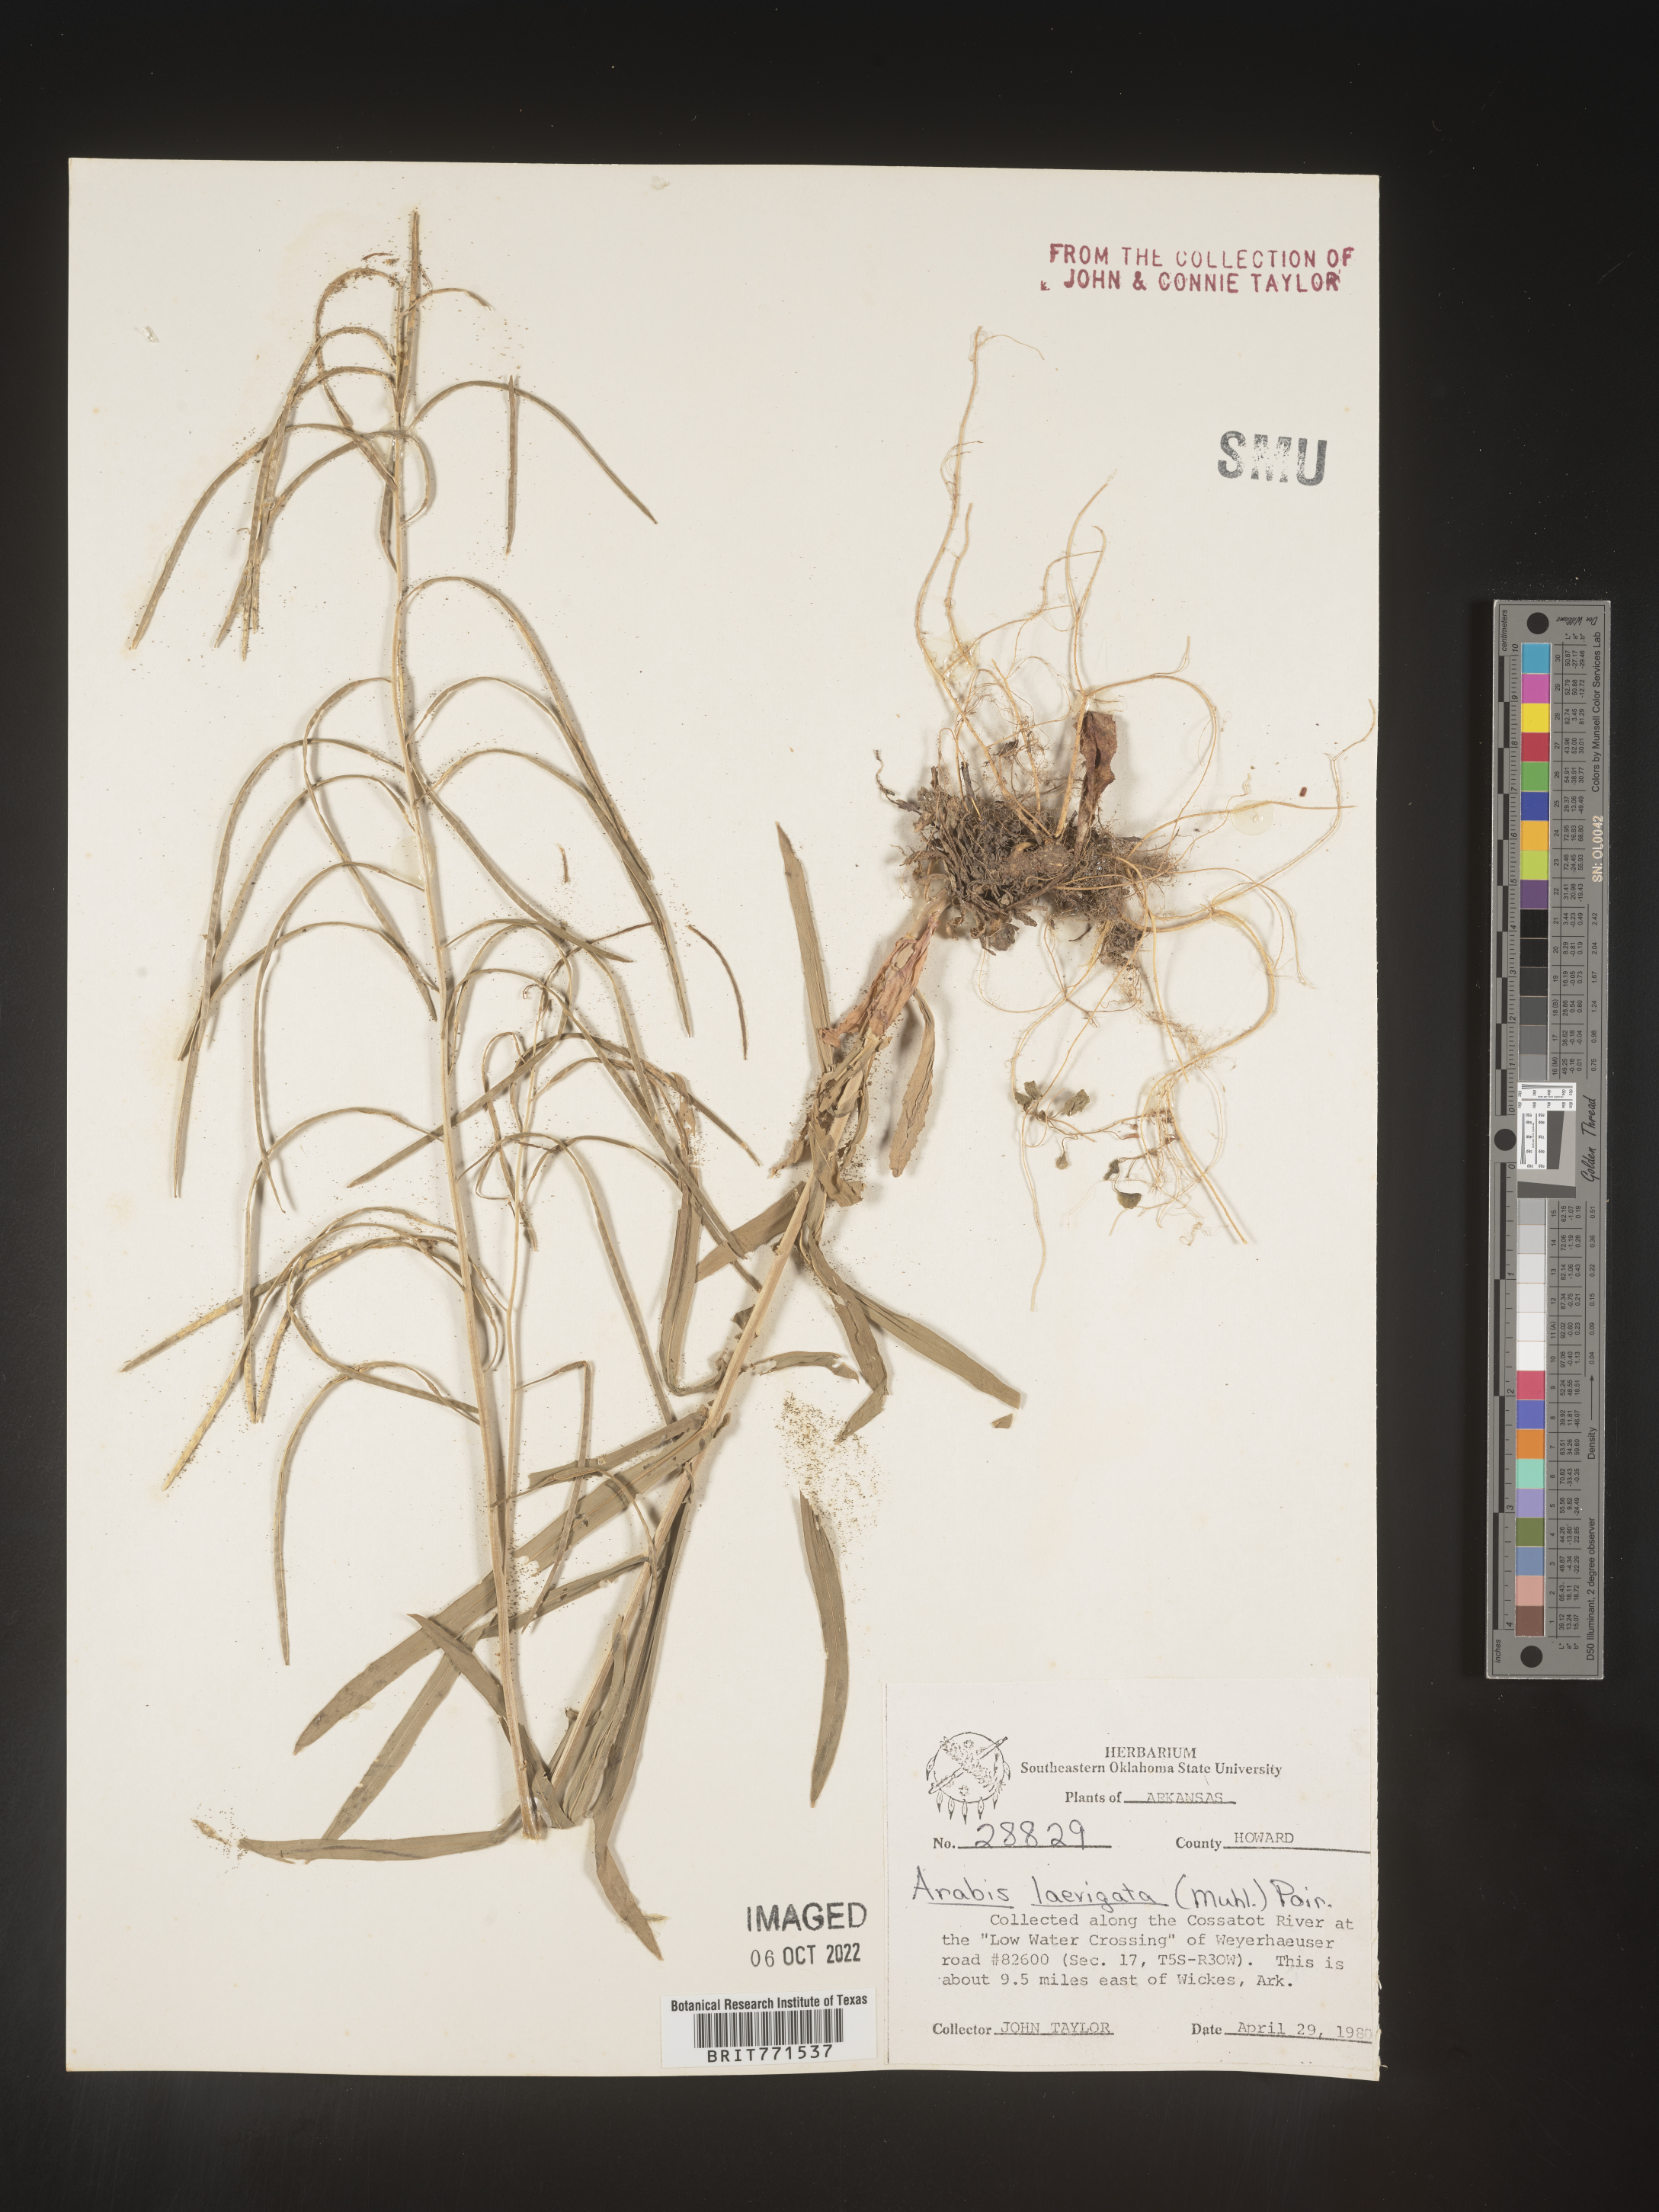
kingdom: Plantae
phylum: Tracheophyta
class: Magnoliopsida
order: Brassicales
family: Brassicaceae
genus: Arabis
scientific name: Arabis laevigata
